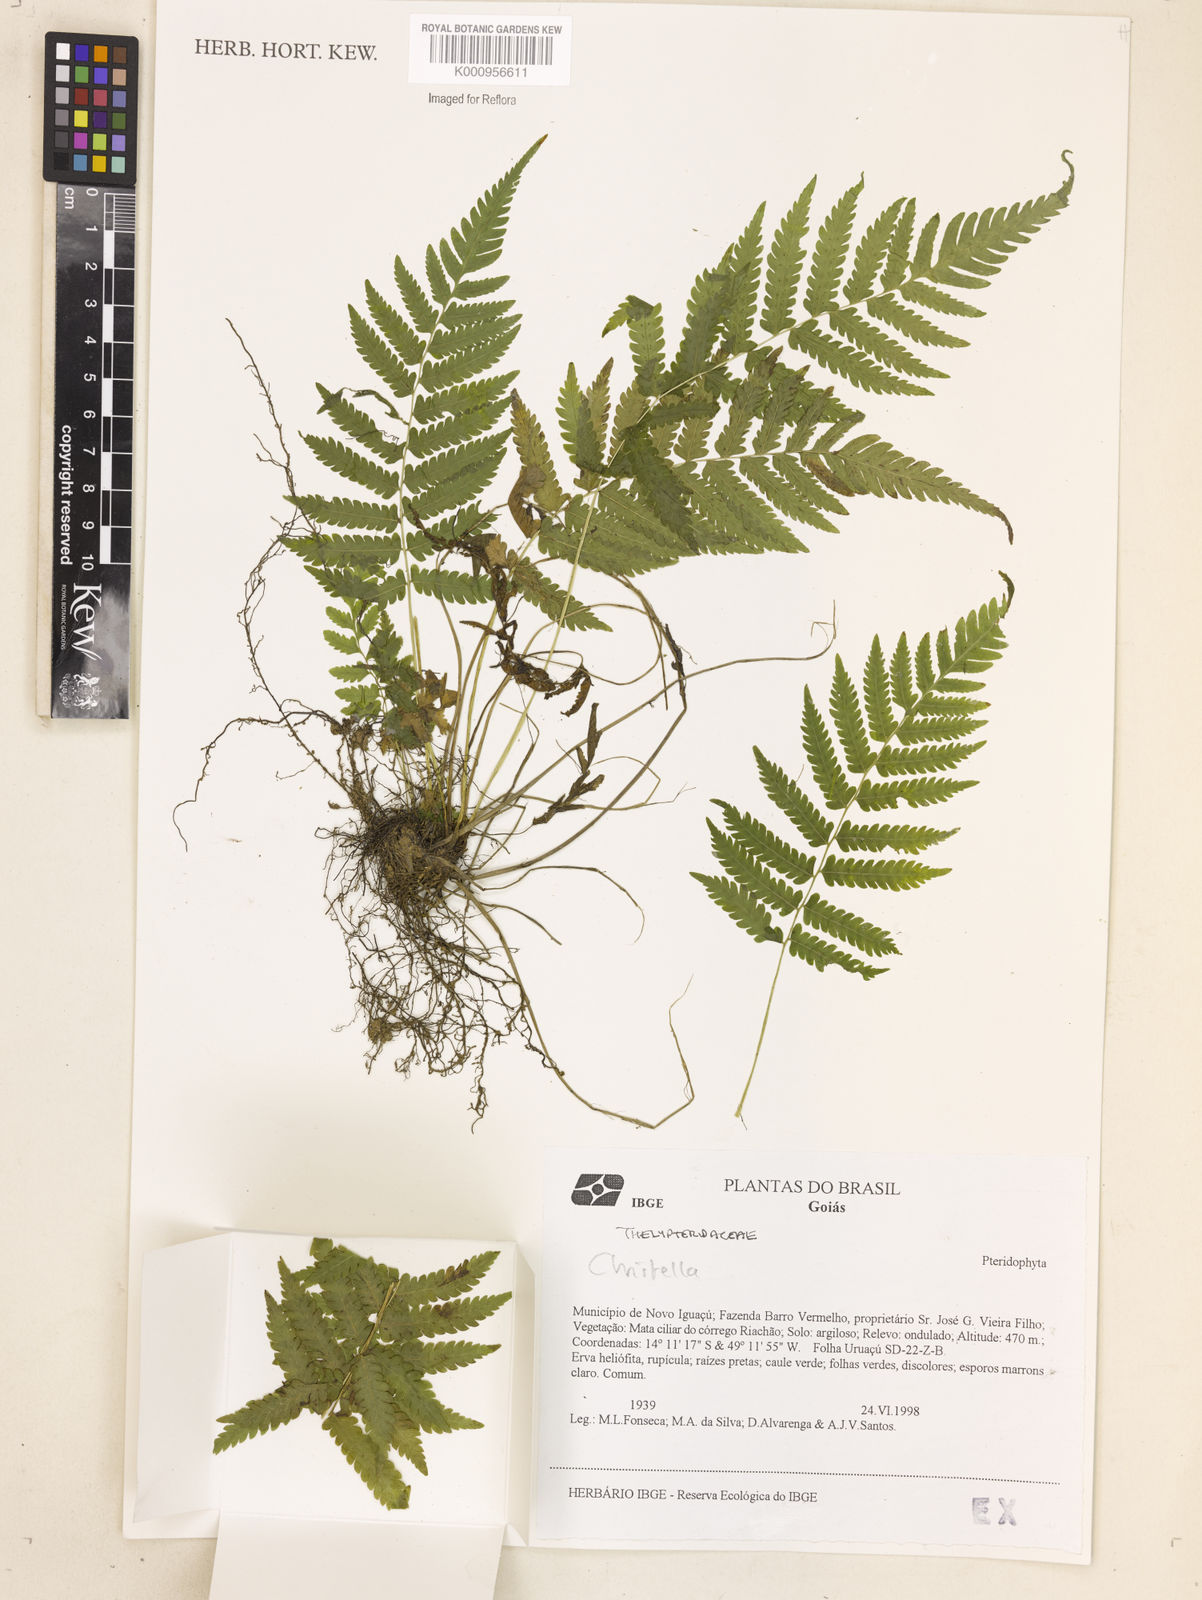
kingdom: Plantae
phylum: Tracheophyta
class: Polypodiopsida
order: Polypodiales
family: Thelypteridaceae
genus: Christella
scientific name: Christella
